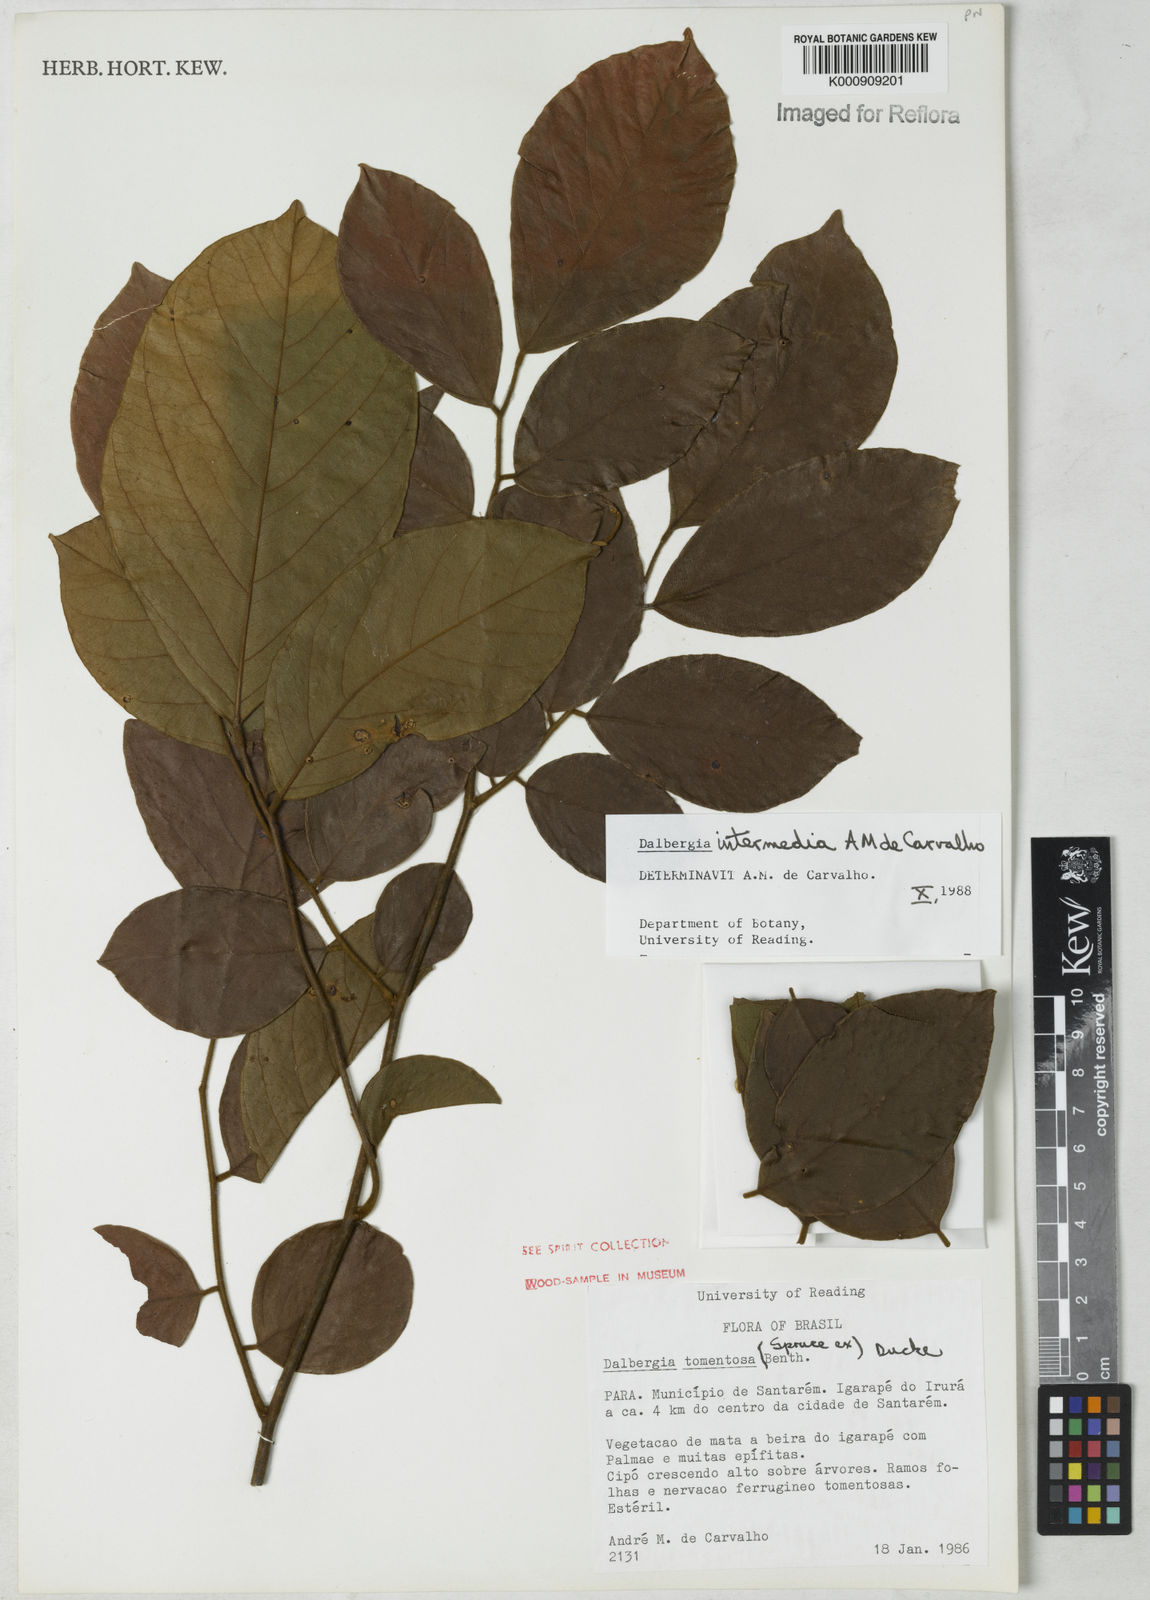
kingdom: Plantae
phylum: Tracheophyta
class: Magnoliopsida
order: Fabales
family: Fabaceae
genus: Dalbergia
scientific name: Dalbergia intermedia
